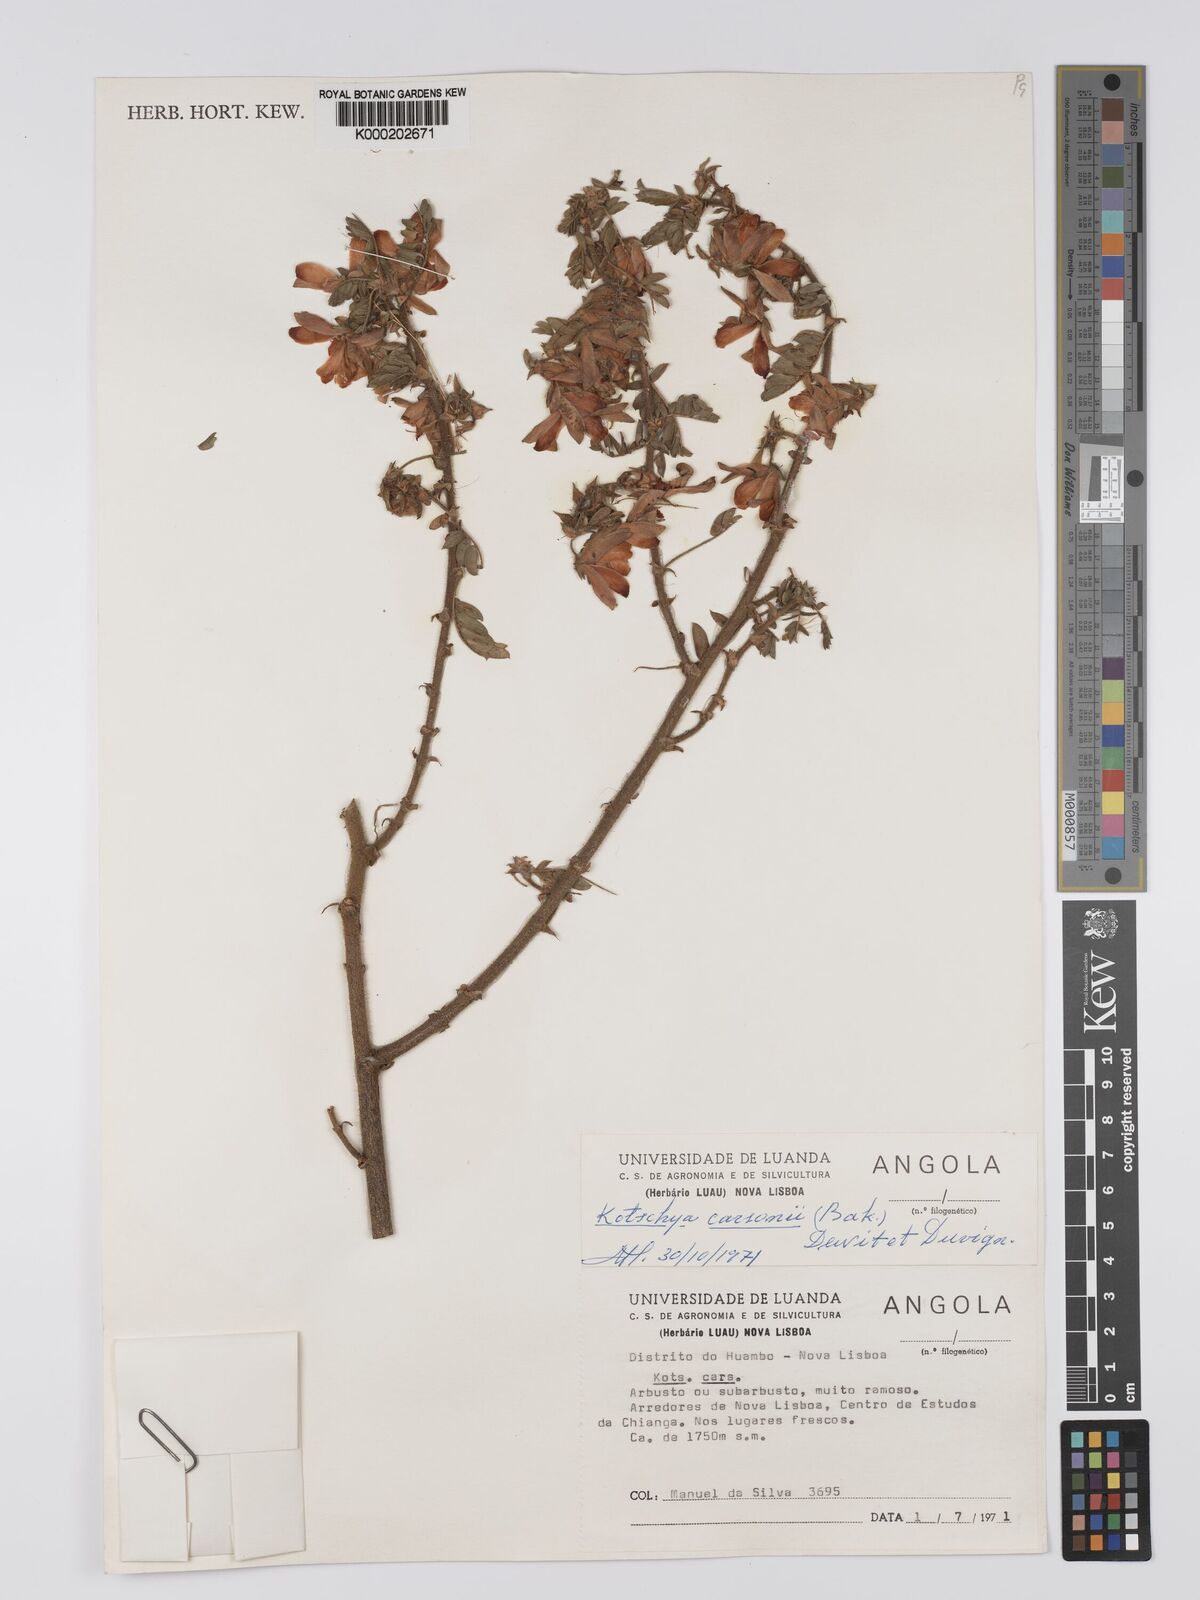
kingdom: Plantae
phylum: Tracheophyta
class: Magnoliopsida
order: Fabales
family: Fabaceae
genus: Kotschya
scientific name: Kotschya carsonii
